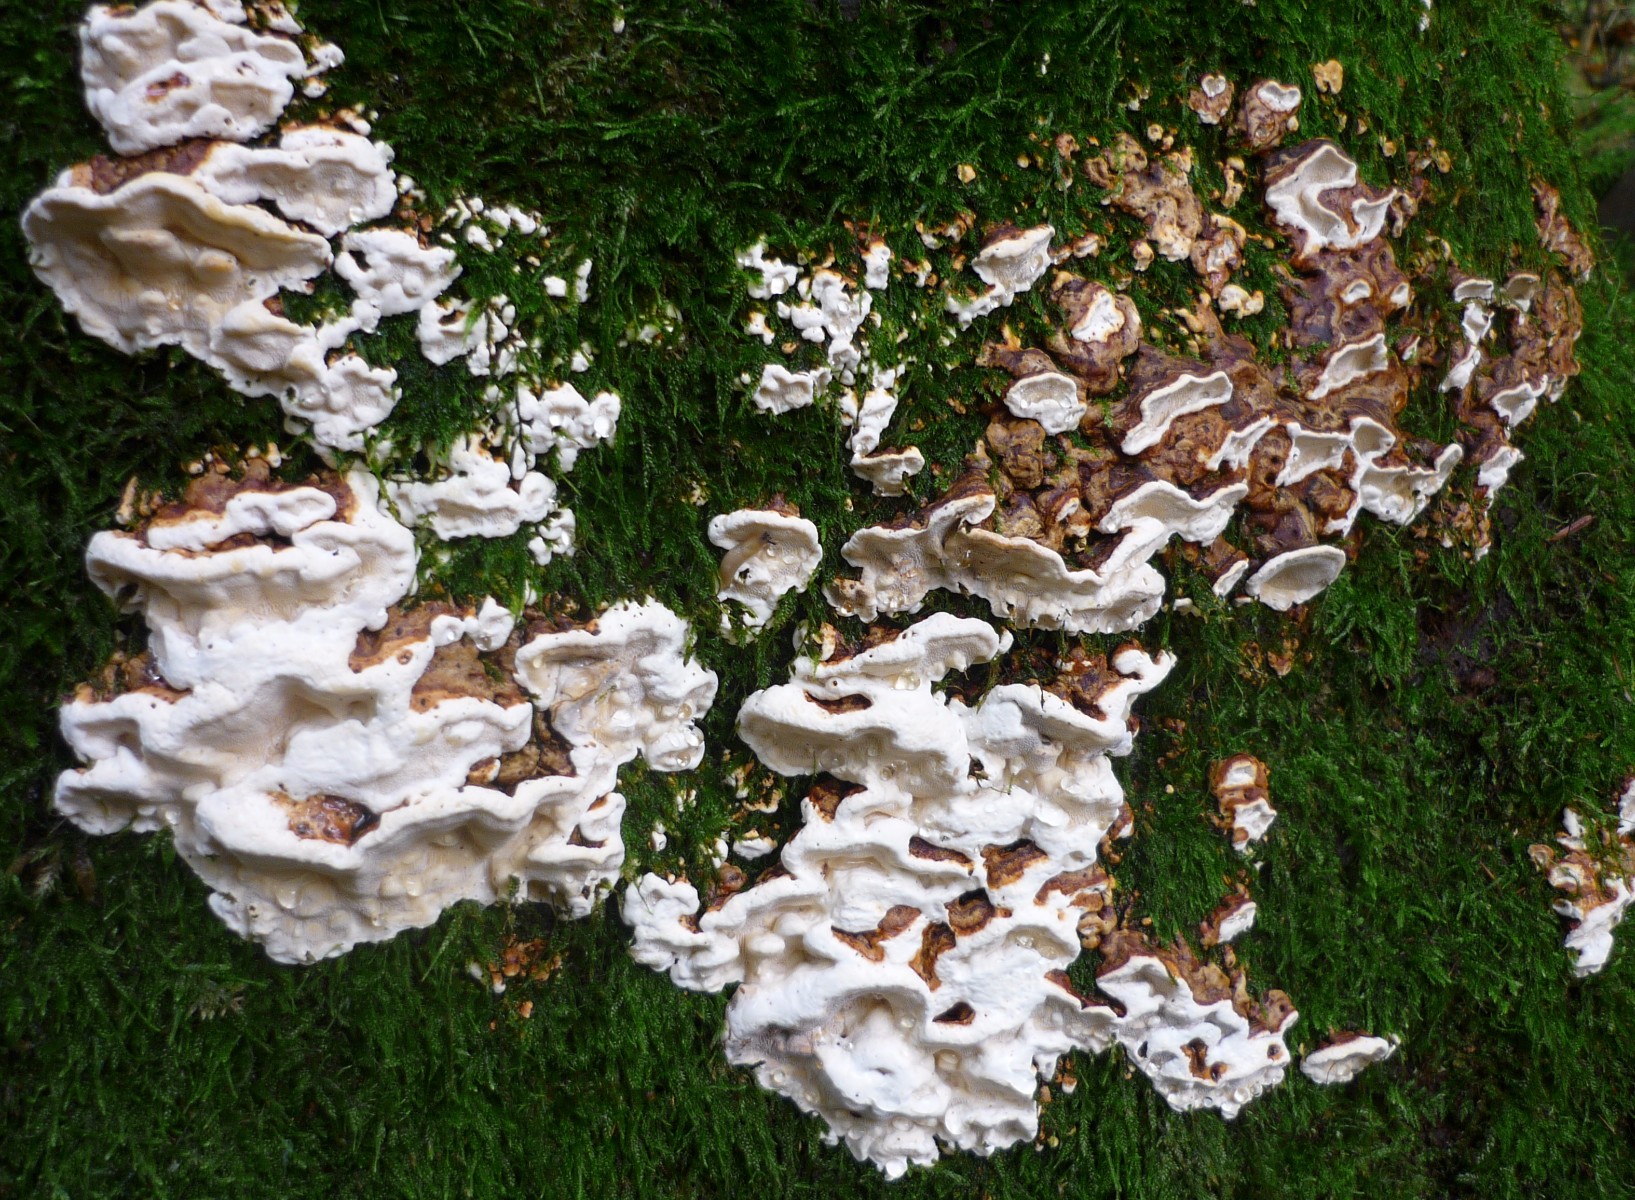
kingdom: Fungi
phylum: Basidiomycota
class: Agaricomycetes
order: Polyporales
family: Fomitopsidaceae
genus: Neoantrodia
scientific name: Neoantrodia serialis
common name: række-sejporesvamp
